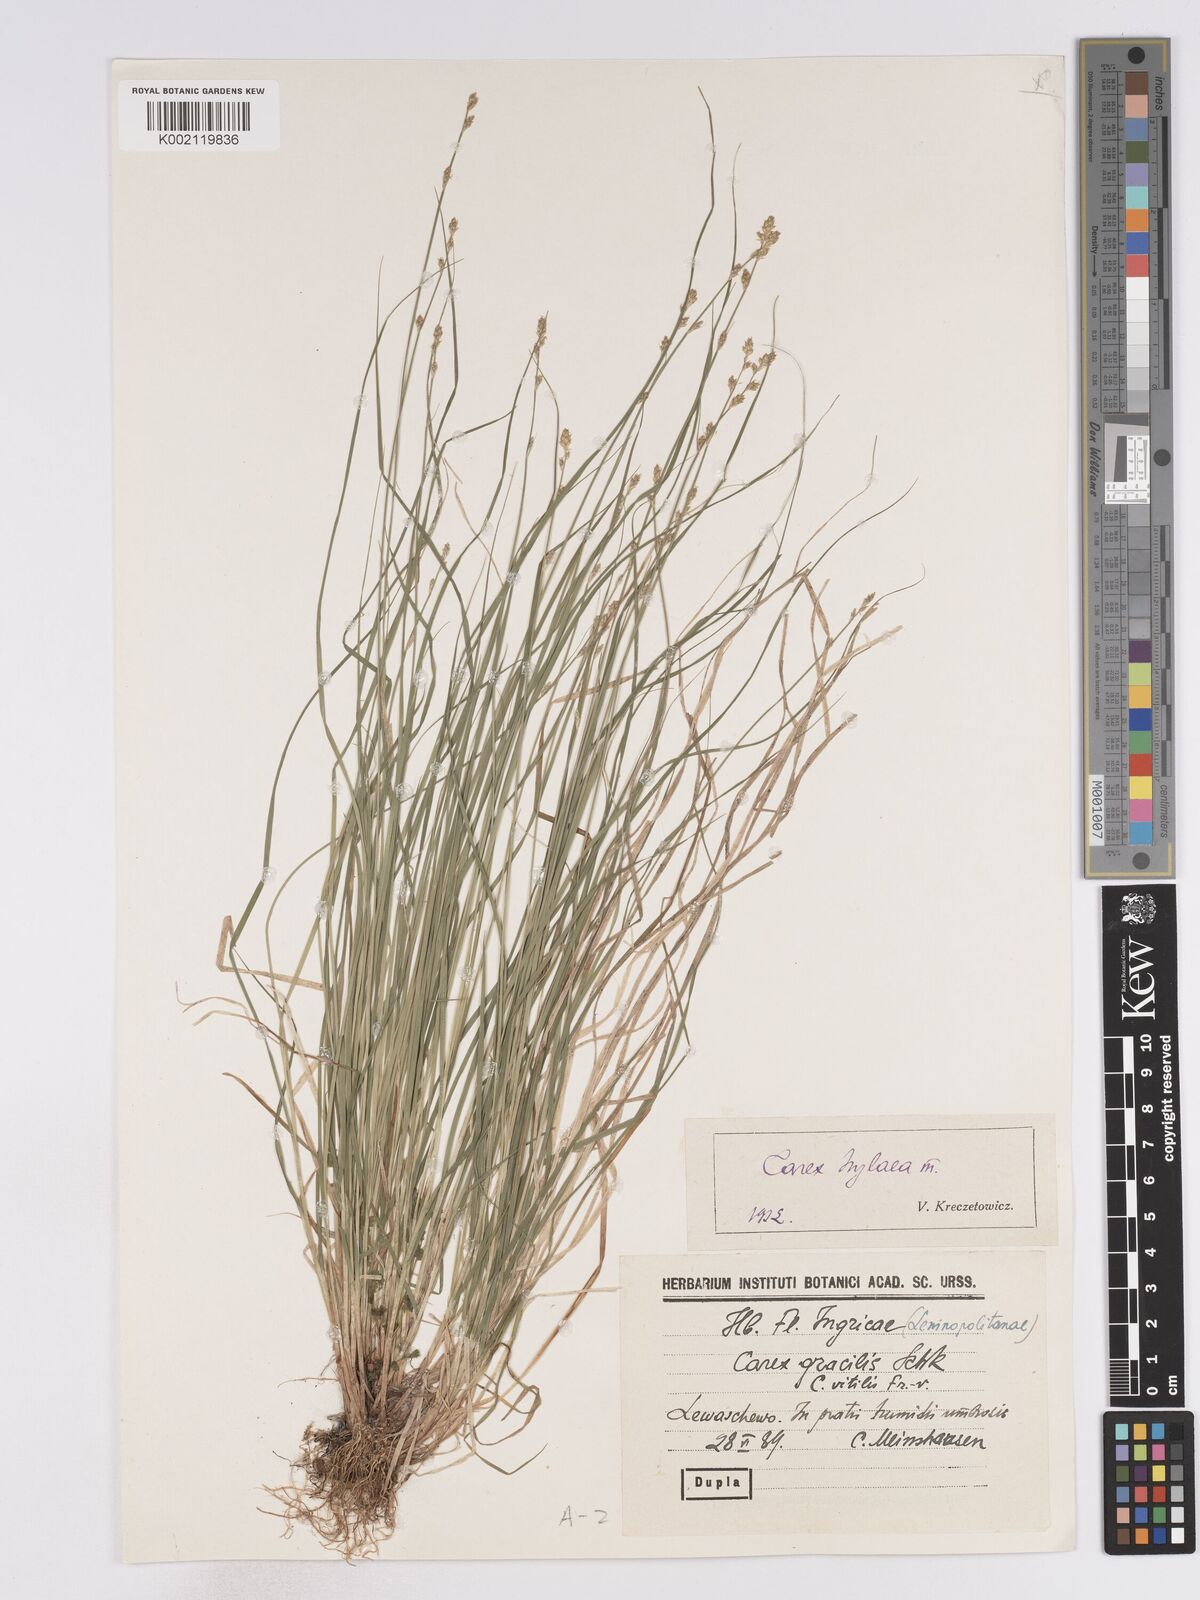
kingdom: Plantae
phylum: Tracheophyta
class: Liliopsida
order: Poales
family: Cyperaceae
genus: Carex
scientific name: Carex curta
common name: White sedge
